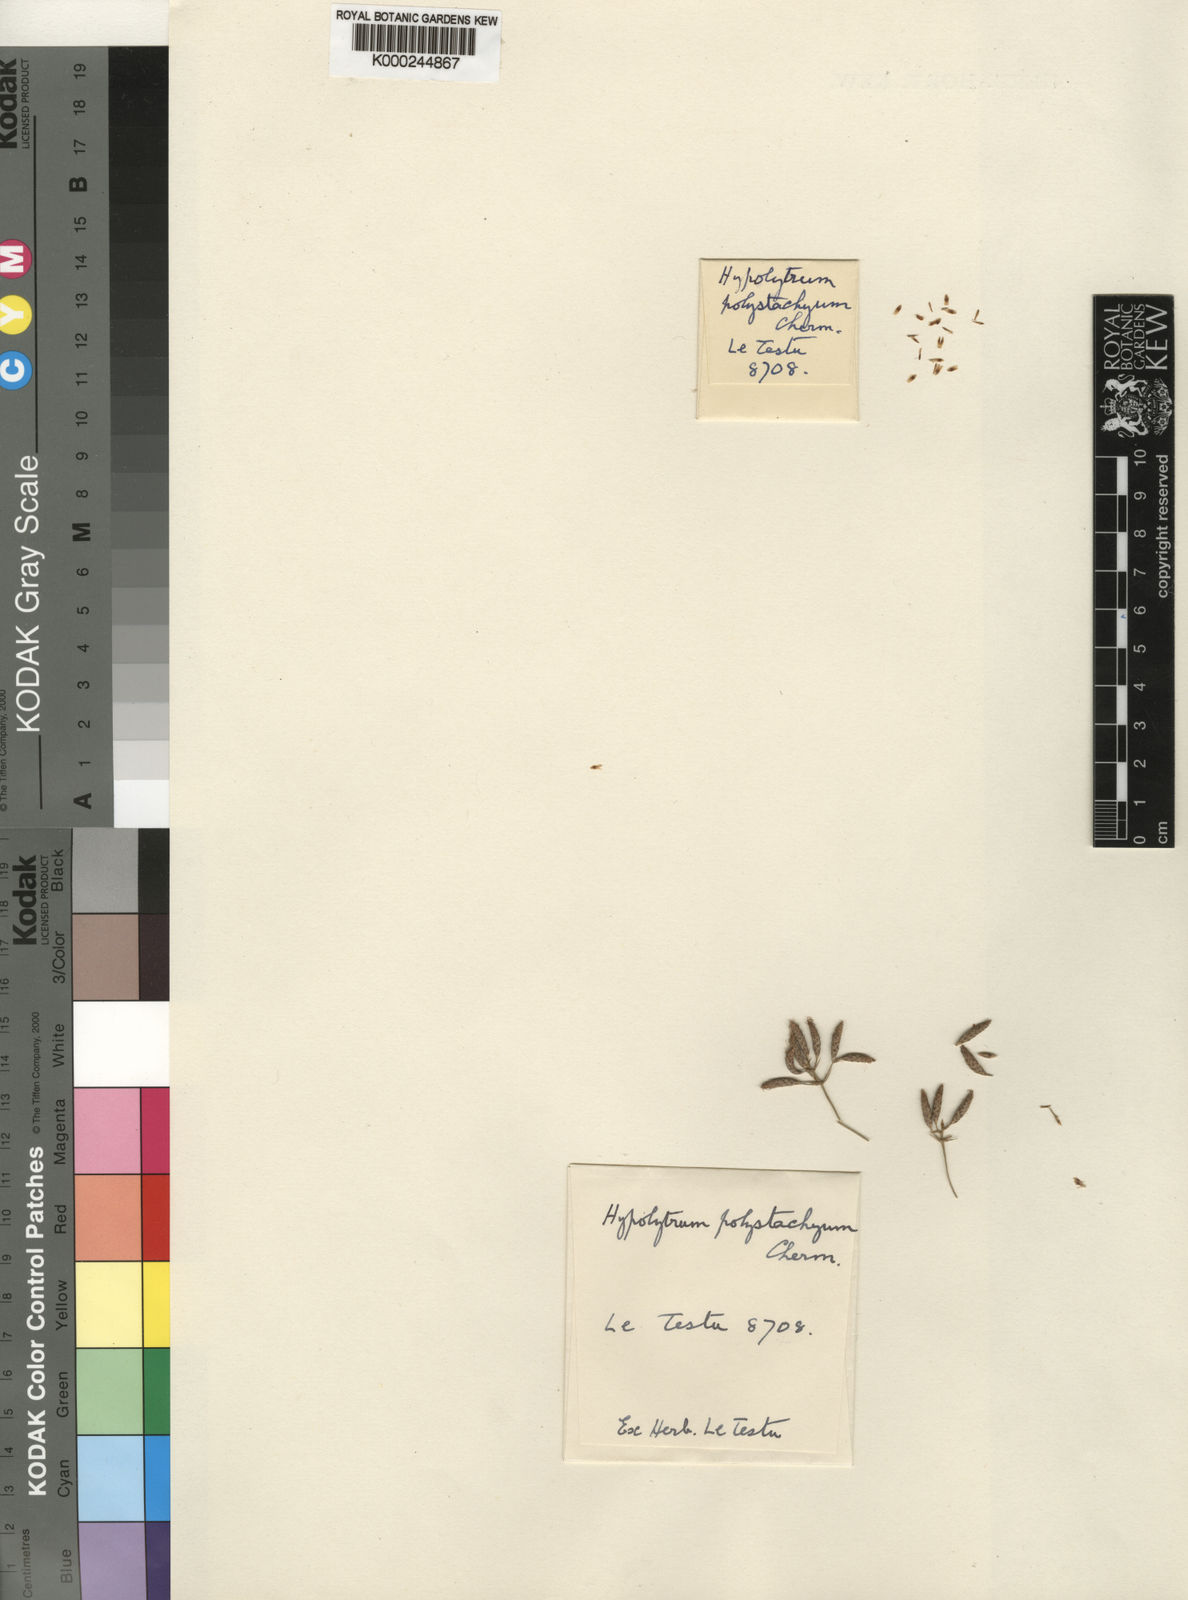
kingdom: Plantae
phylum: Tracheophyta
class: Liliopsida
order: Poales
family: Cyperaceae
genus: Hypolytrum
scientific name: Hypolytrum polystachyum
